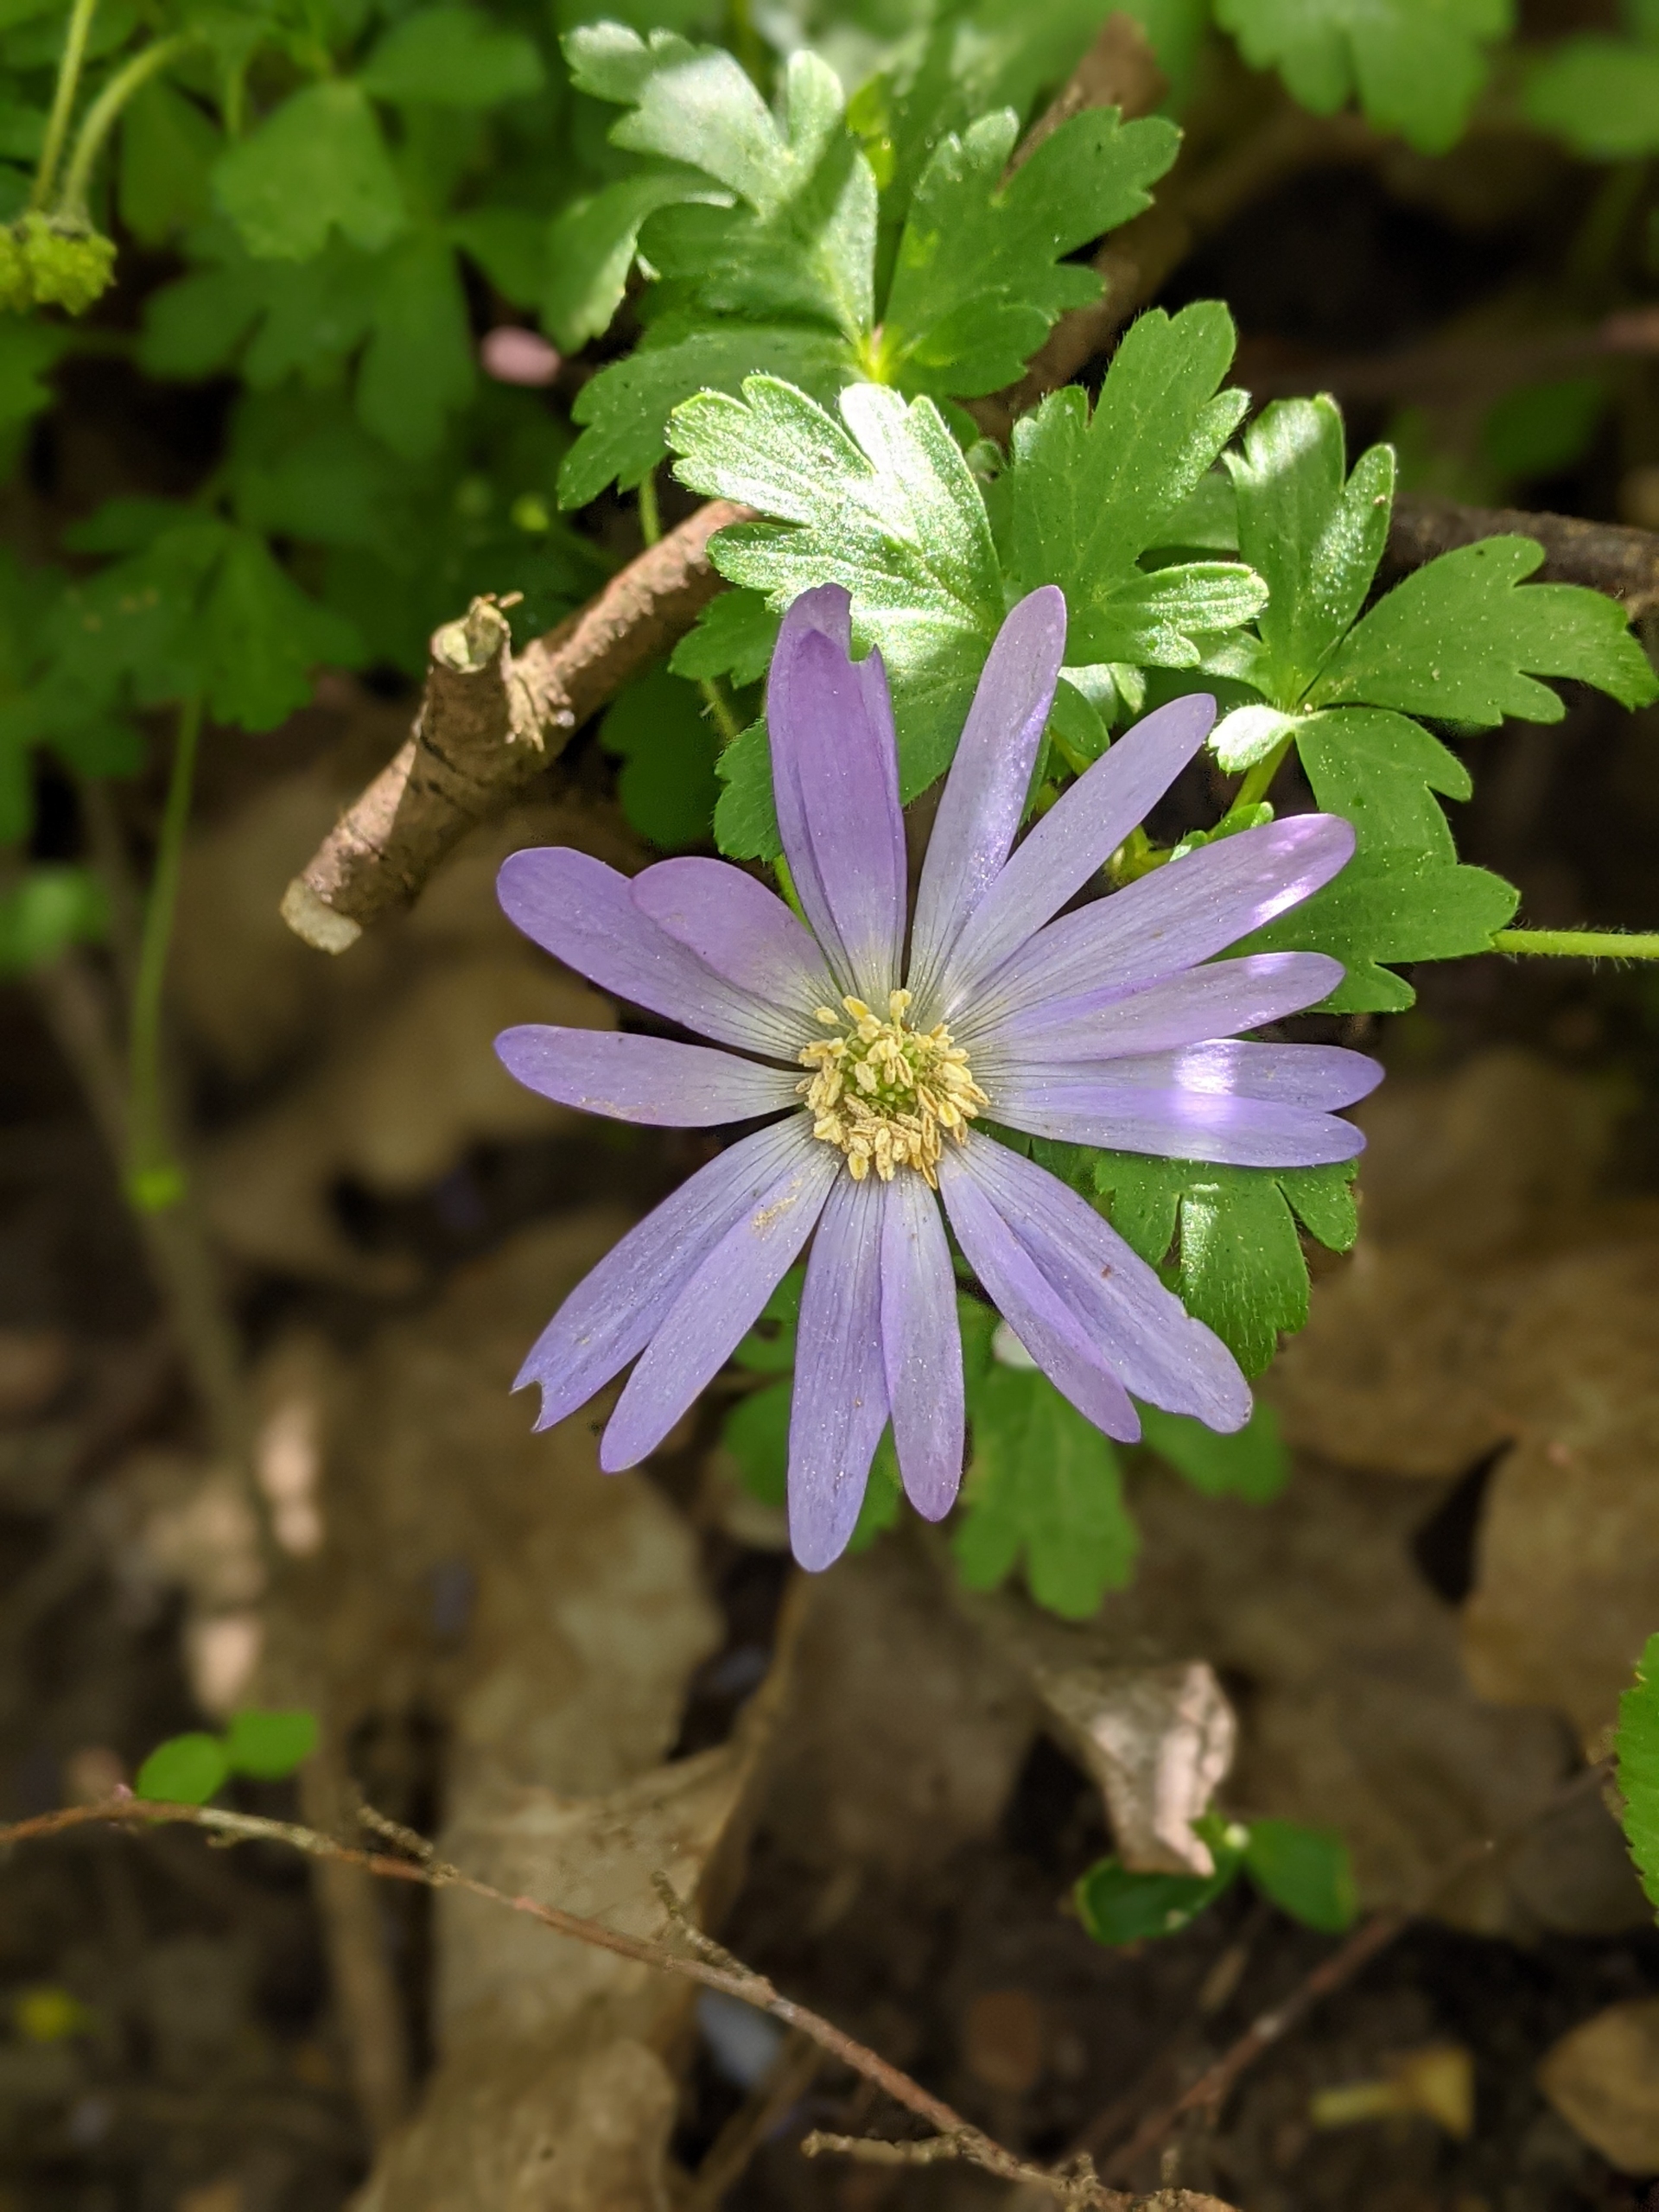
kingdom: Plantae
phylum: Tracheophyta
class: Magnoliopsida
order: Ranunculales
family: Ranunculaceae
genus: Anemone
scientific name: Anemone blanda
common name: Balkan-anemone
